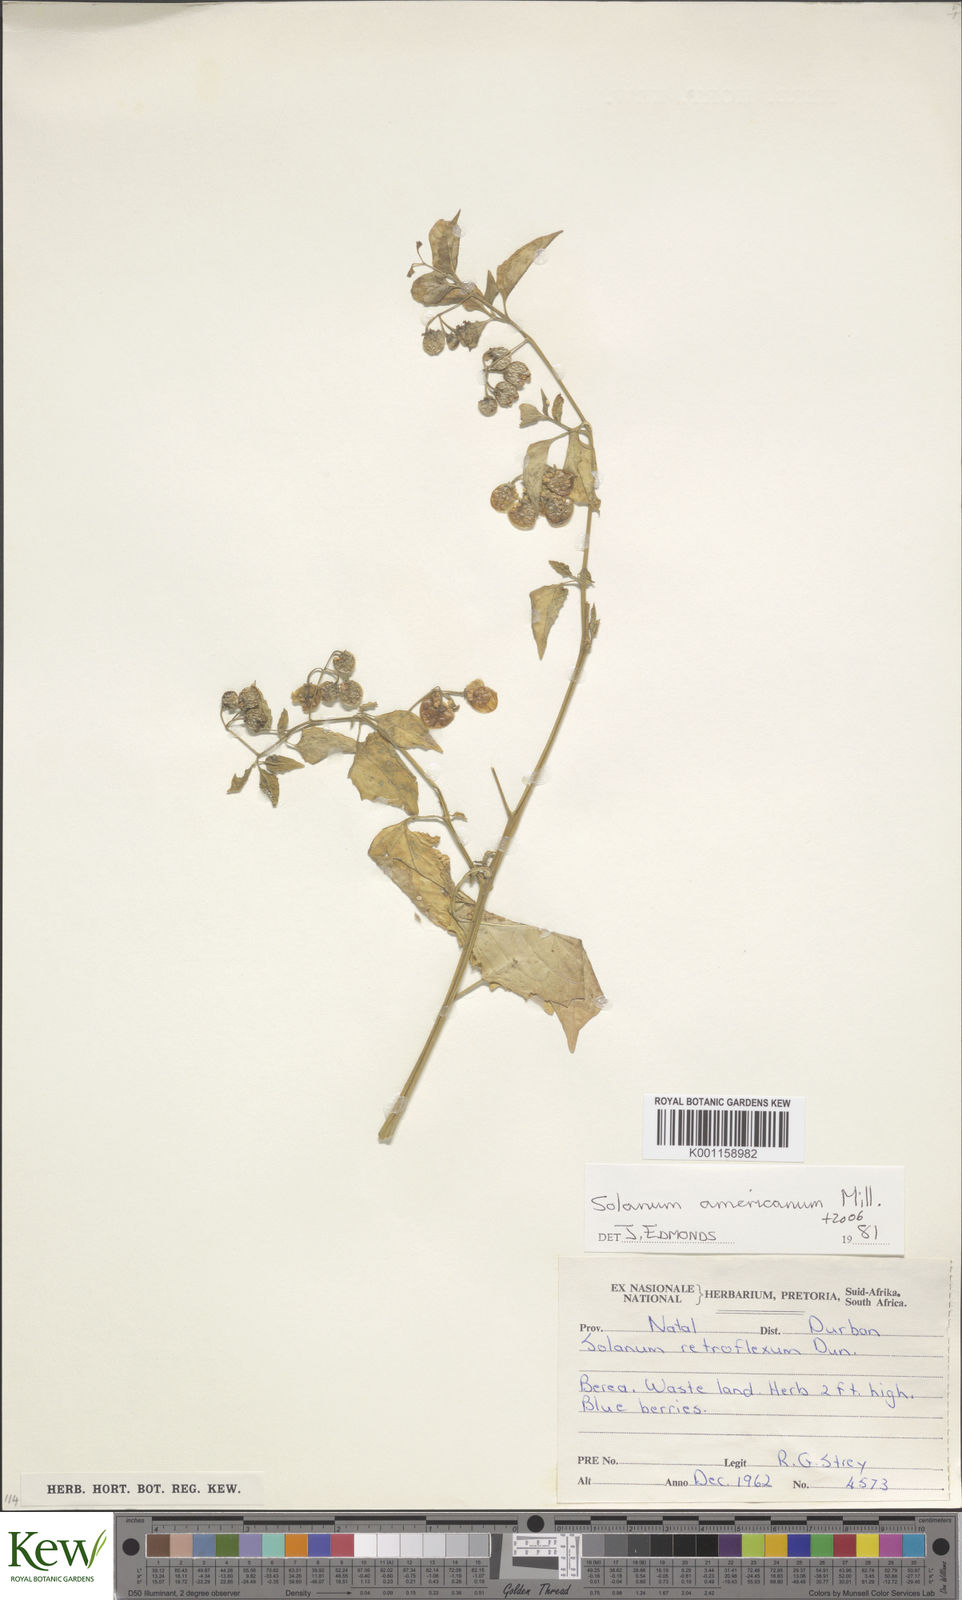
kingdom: Plantae
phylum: Tracheophyta
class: Magnoliopsida
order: Solanales
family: Solanaceae
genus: Solanum
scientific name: Solanum americanum
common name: American black nightshade
